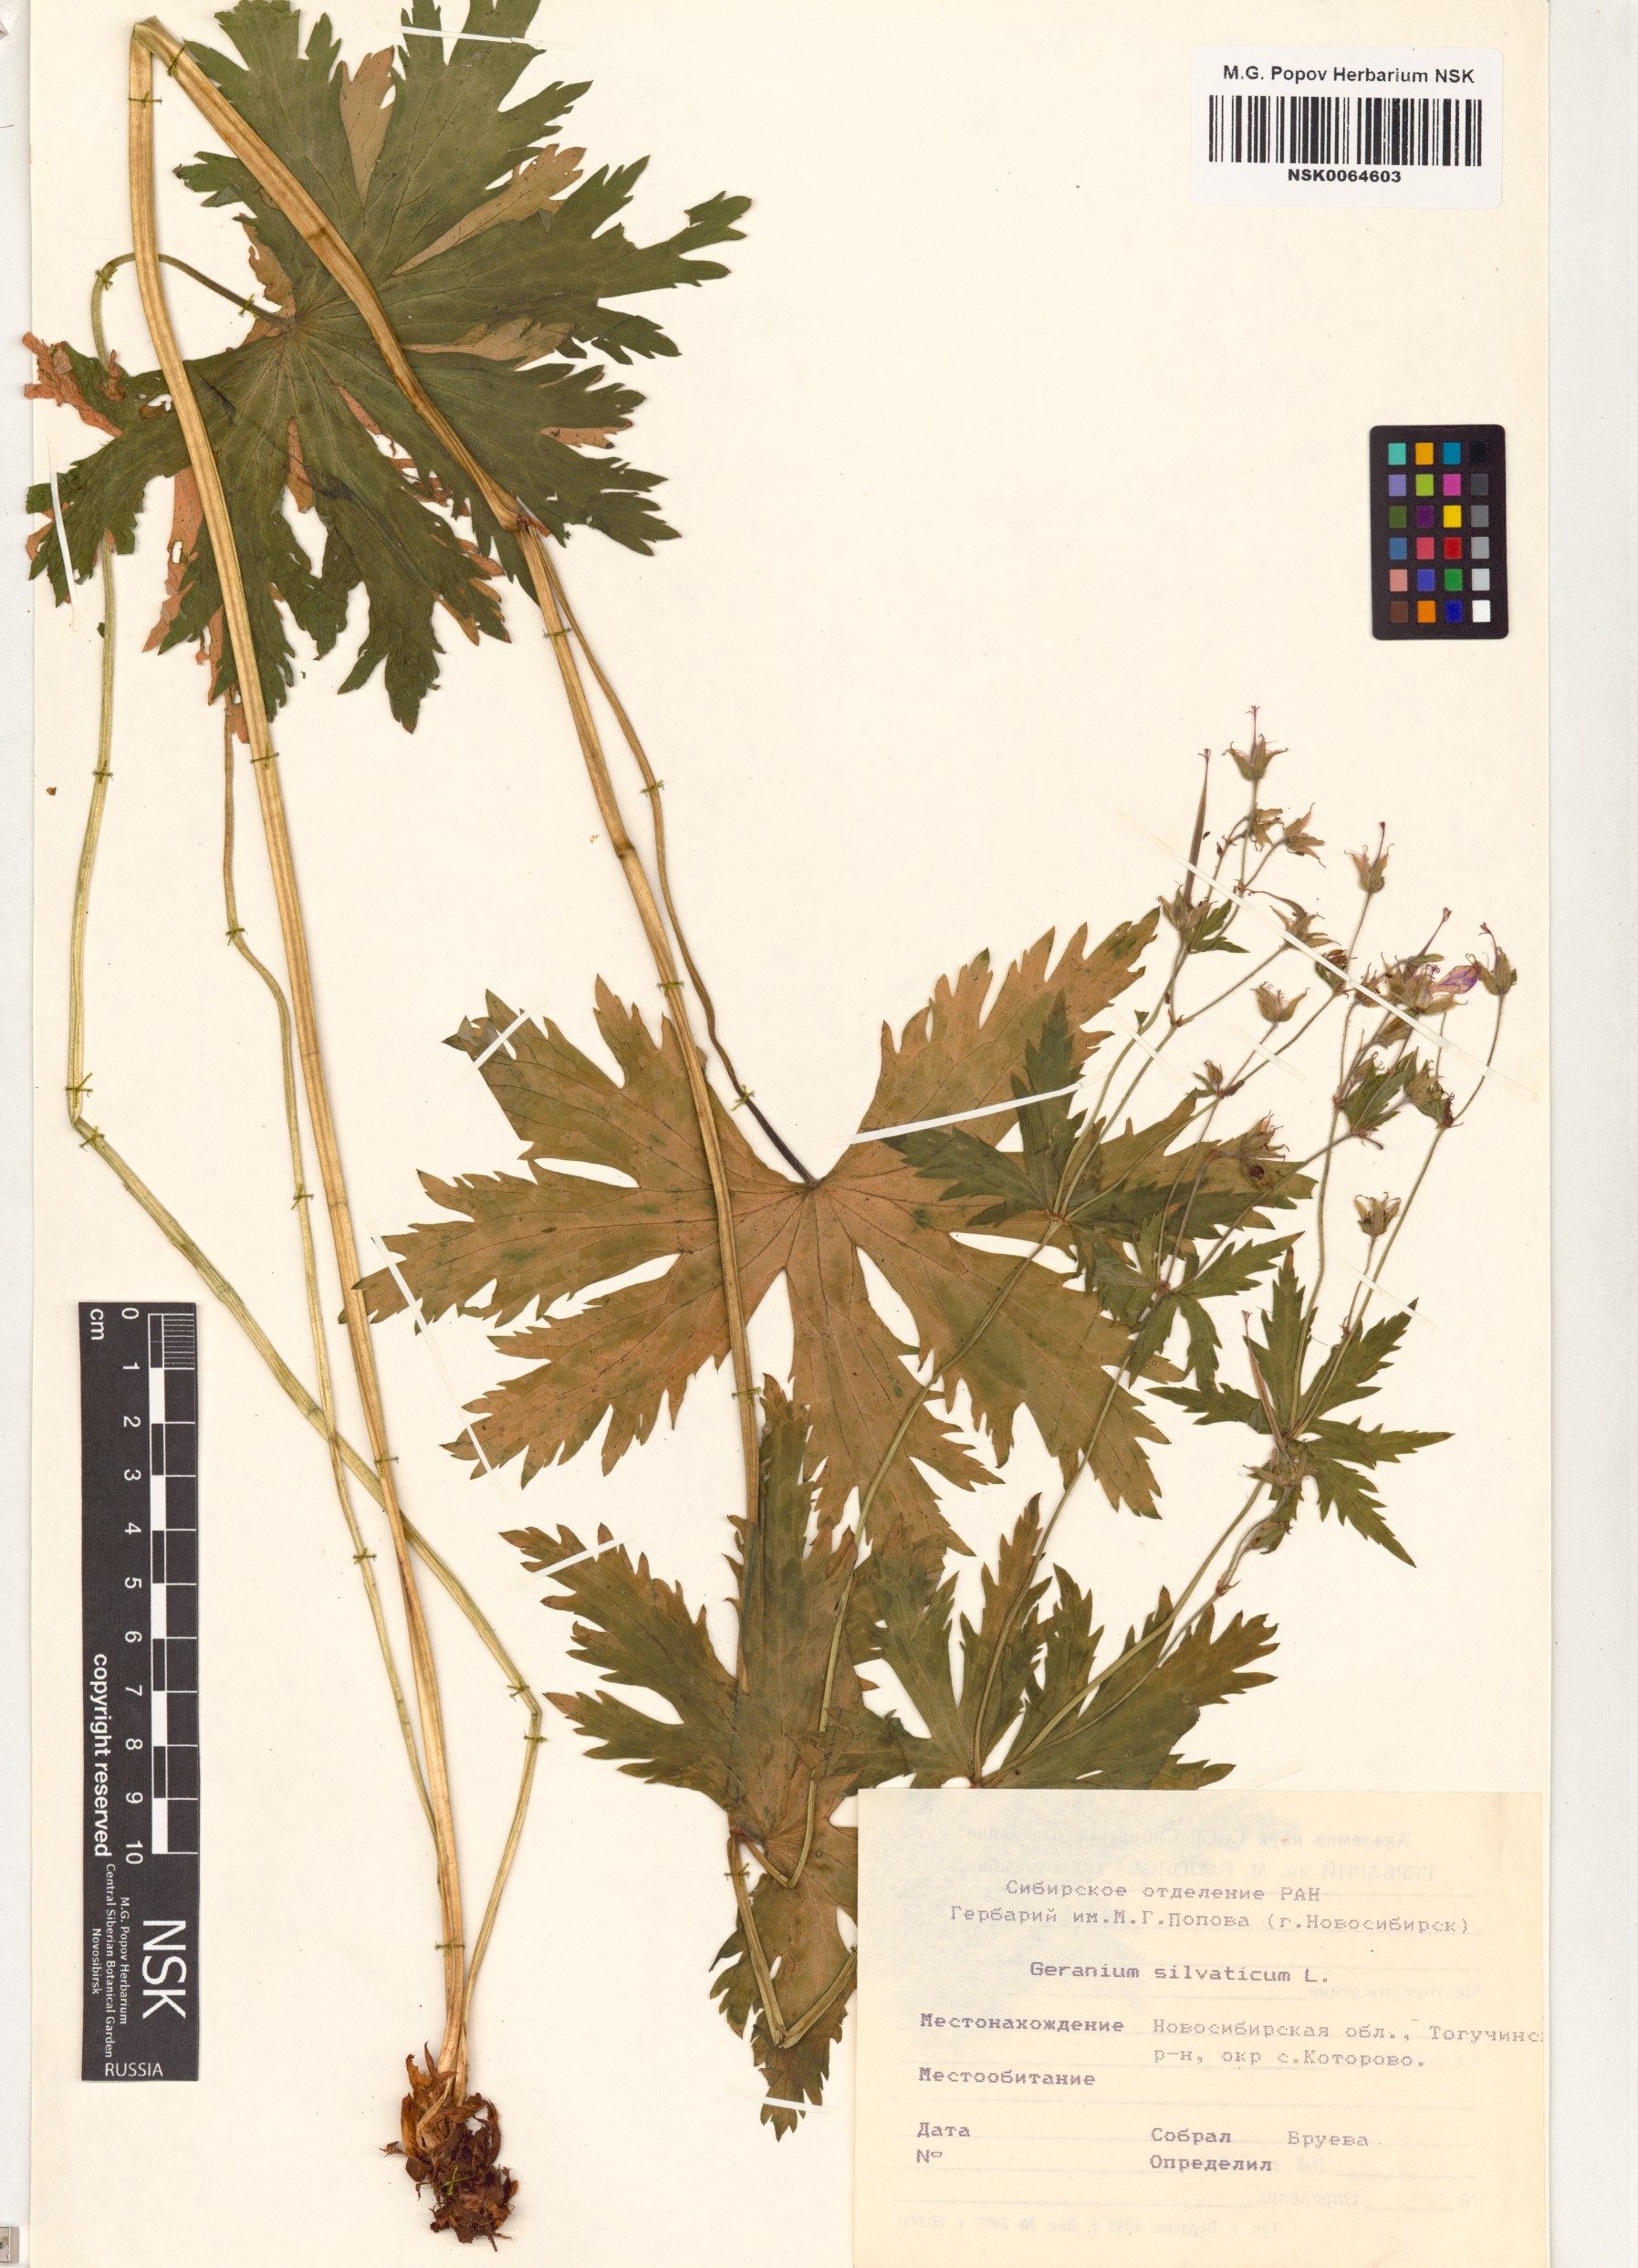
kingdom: Plantae
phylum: Tracheophyta
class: Magnoliopsida
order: Geraniales
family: Geraniaceae
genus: Geranium
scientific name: Geranium sylvaticum
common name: Wood crane's-bill
